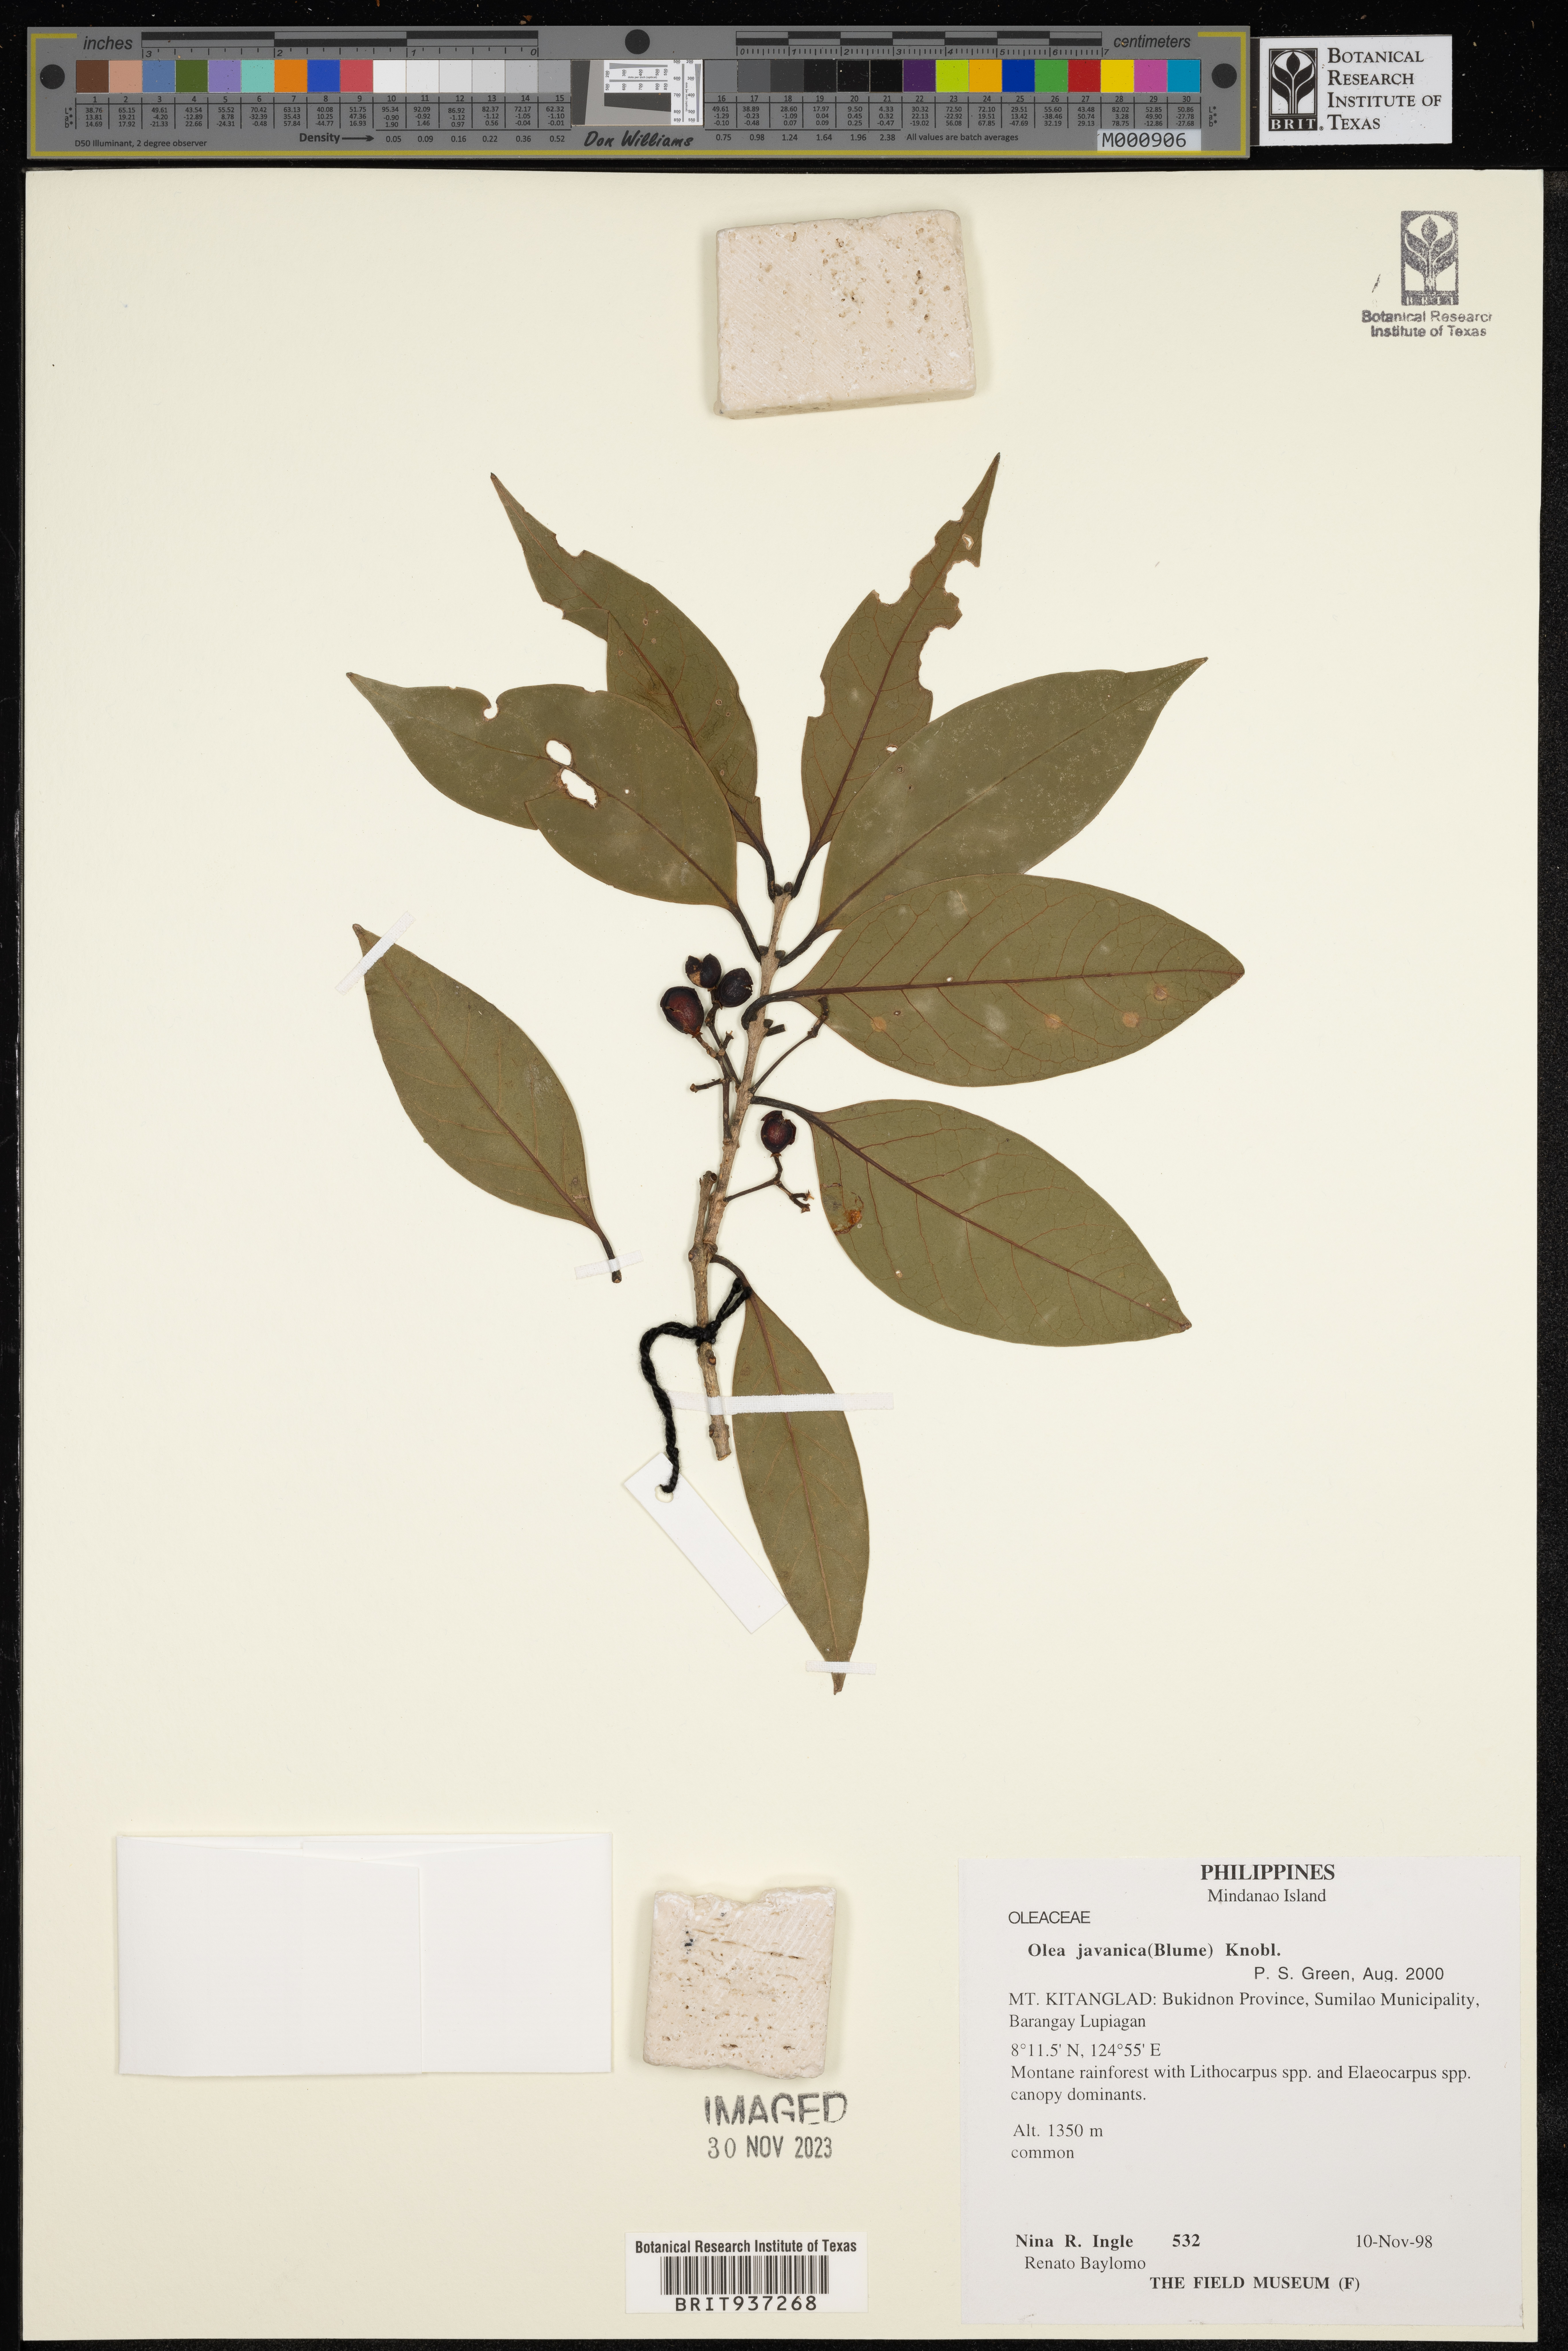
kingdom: Plantae
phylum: Tracheophyta
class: Magnoliopsida
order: Lamiales
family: Oleaceae
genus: Olea
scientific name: Olea
